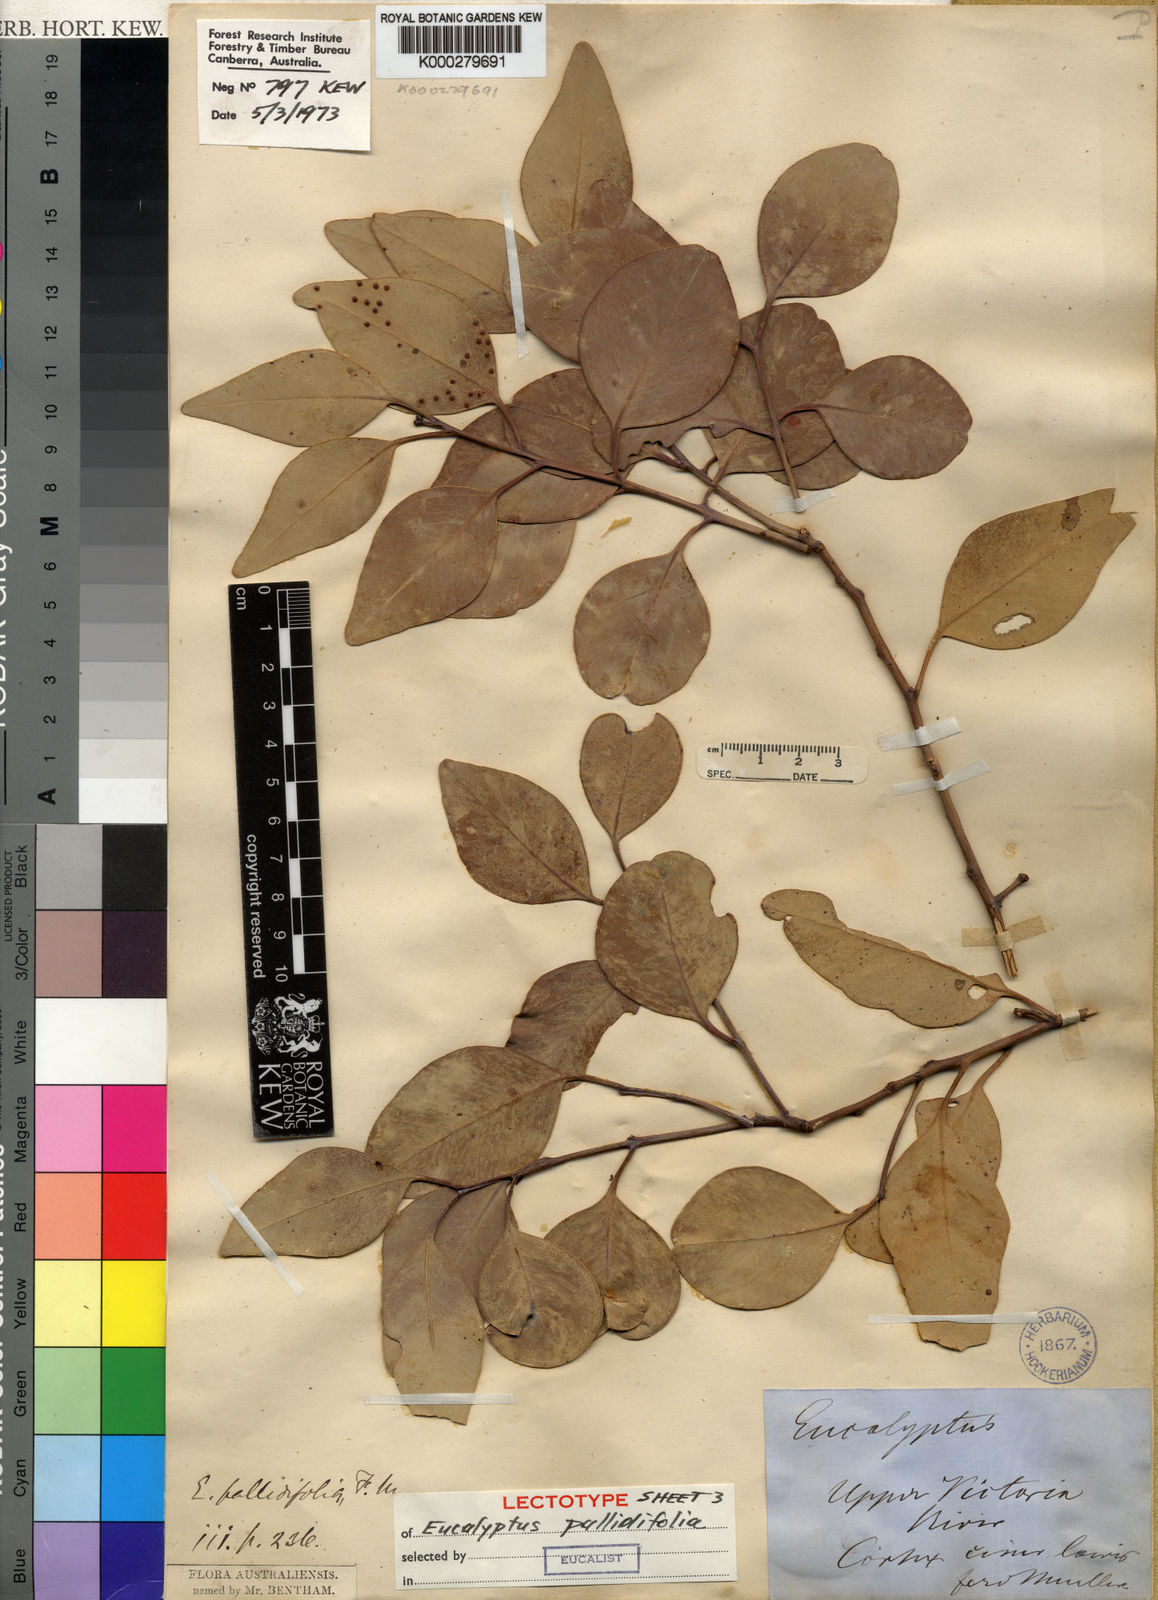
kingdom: Plantae
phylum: Tracheophyta
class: Magnoliopsida
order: Myrtales
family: Myrtaceae
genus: Eucalyptus
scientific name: Eucalyptus brevifolia
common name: Northern-white-gum
